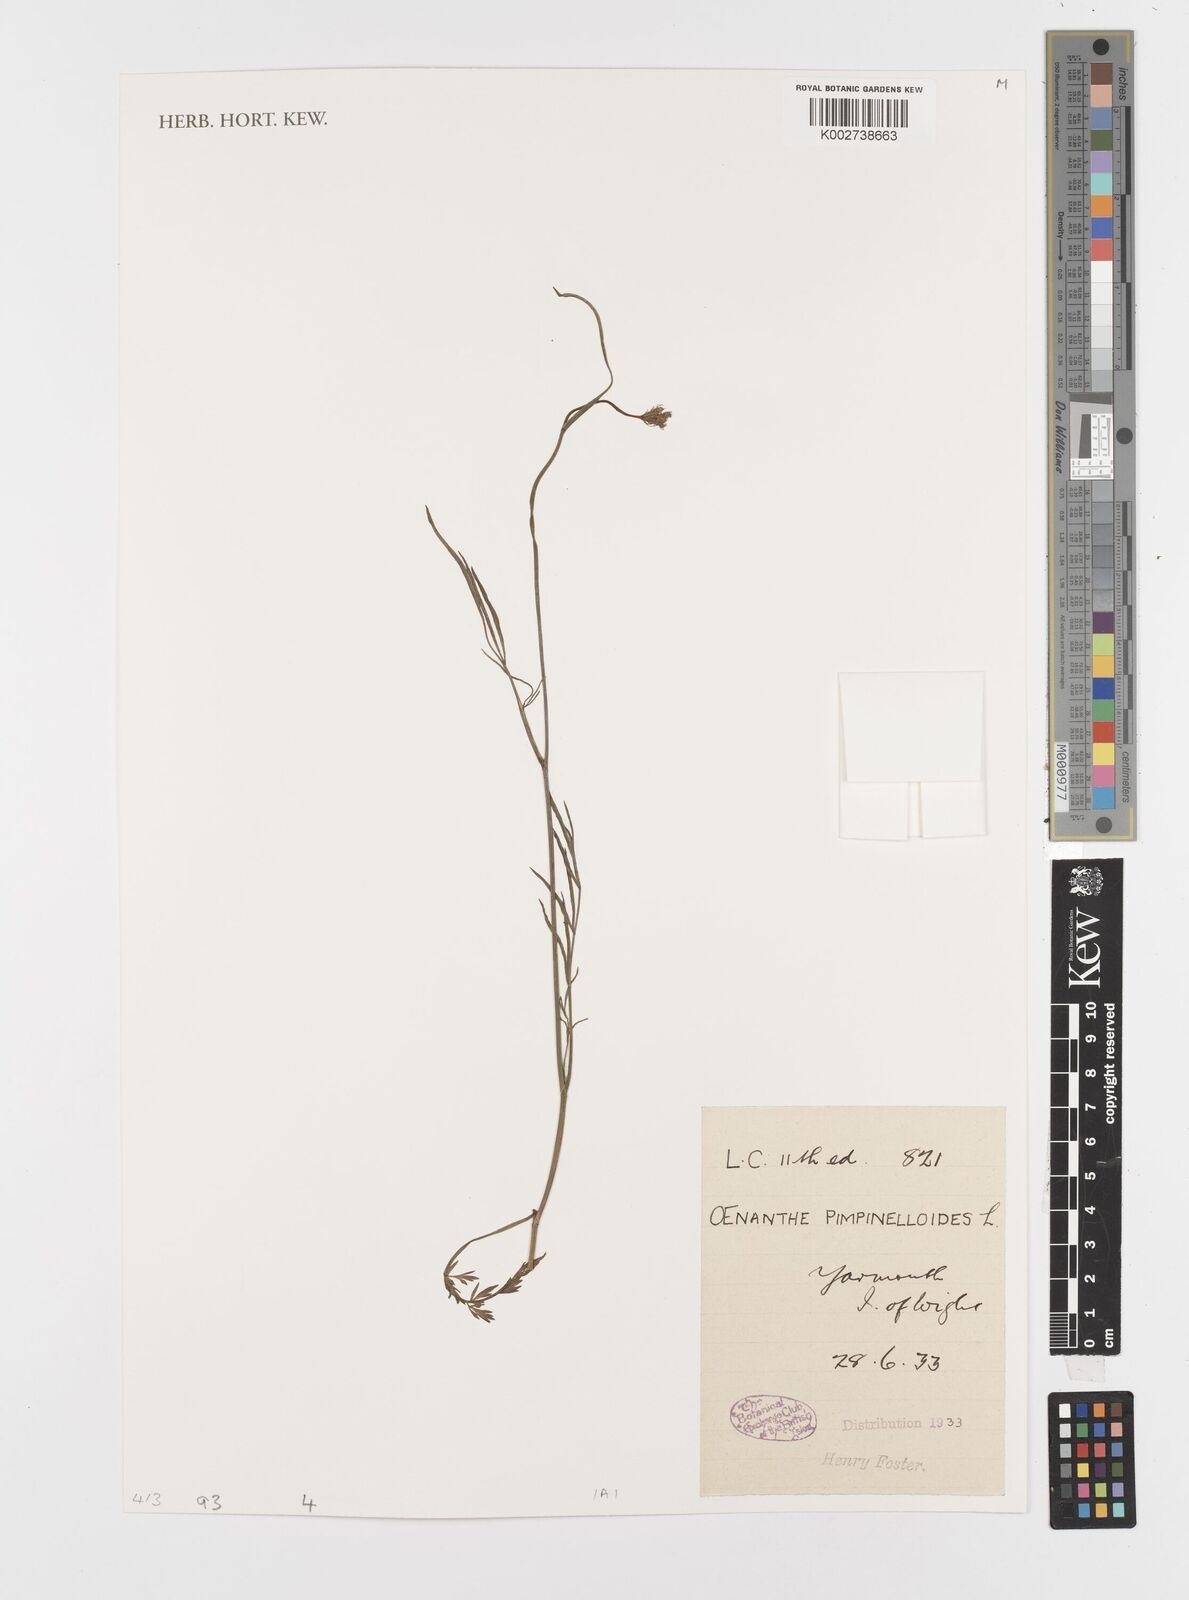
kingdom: Plantae
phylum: Tracheophyta
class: Magnoliopsida
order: Apiales
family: Apiaceae
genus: Oenanthe
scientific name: Oenanthe pimpinelloides
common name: Corky-fruited water-dropwort
